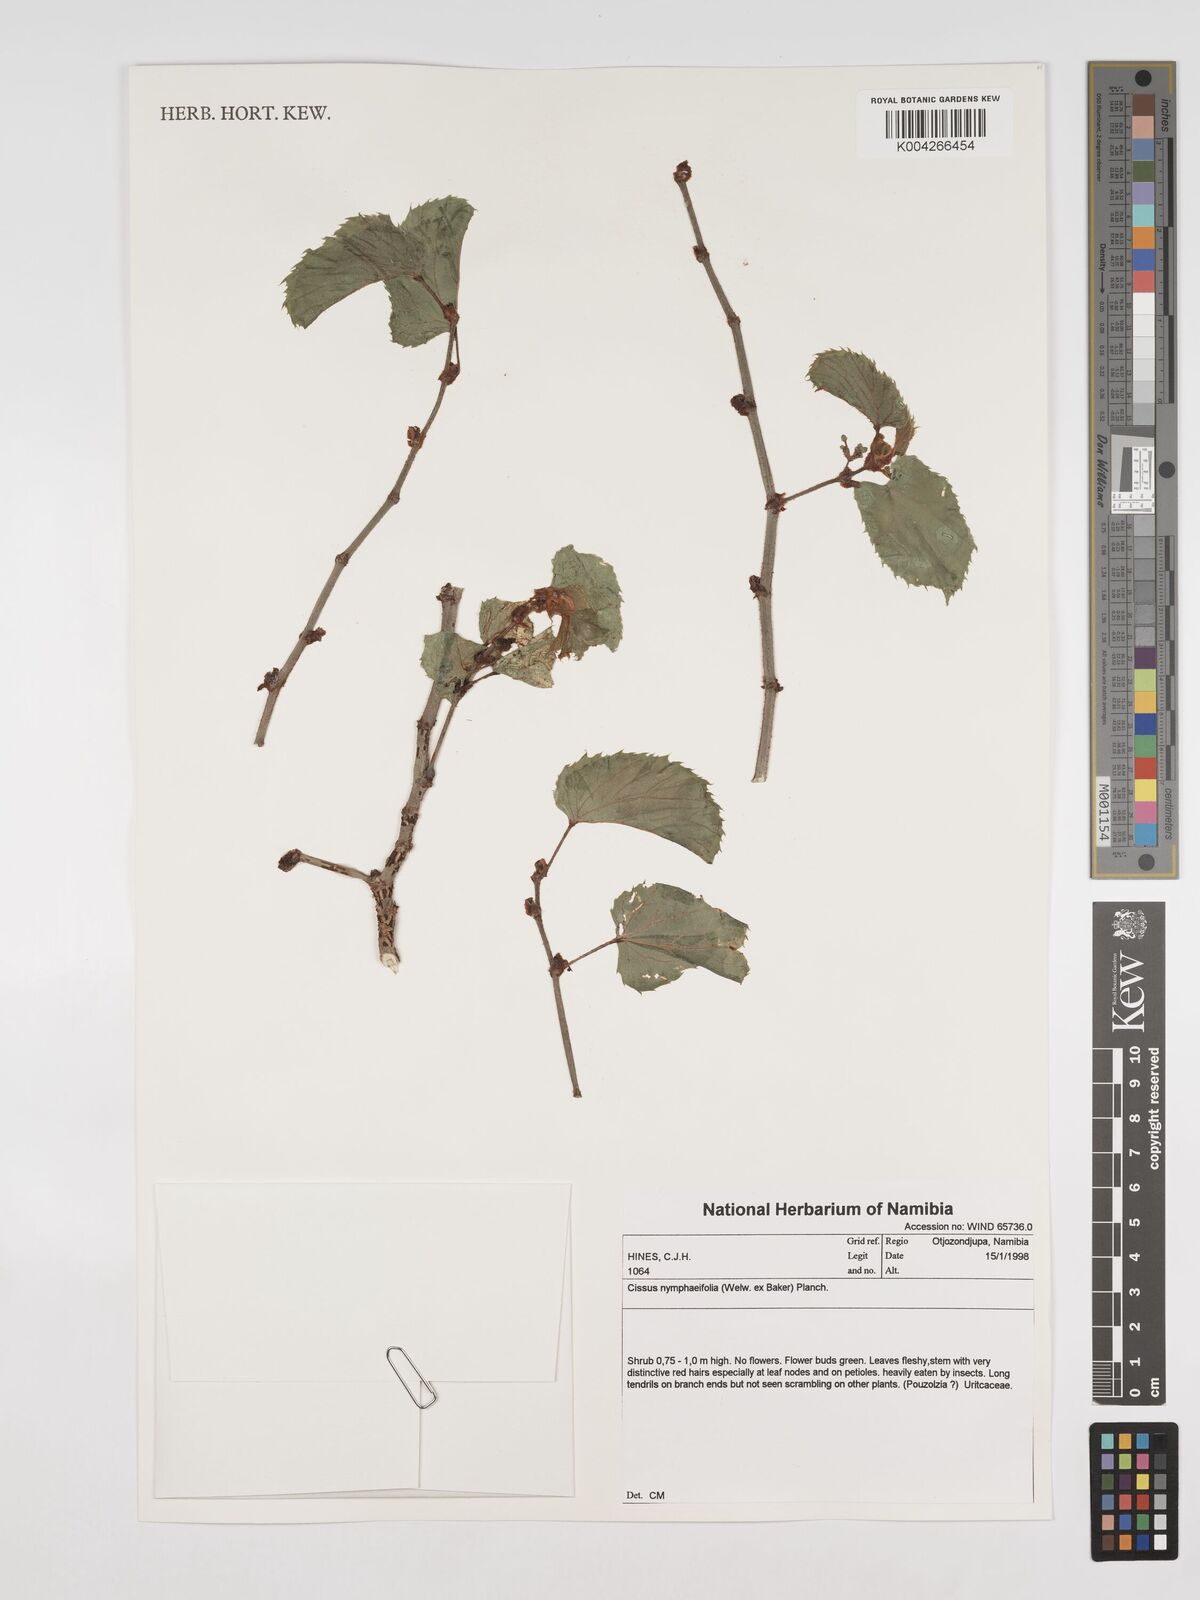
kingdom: Plantae
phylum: Tracheophyta
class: Magnoliopsida
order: Vitales
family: Vitaceae
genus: Cissus
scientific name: Cissus nymphaeifolia
